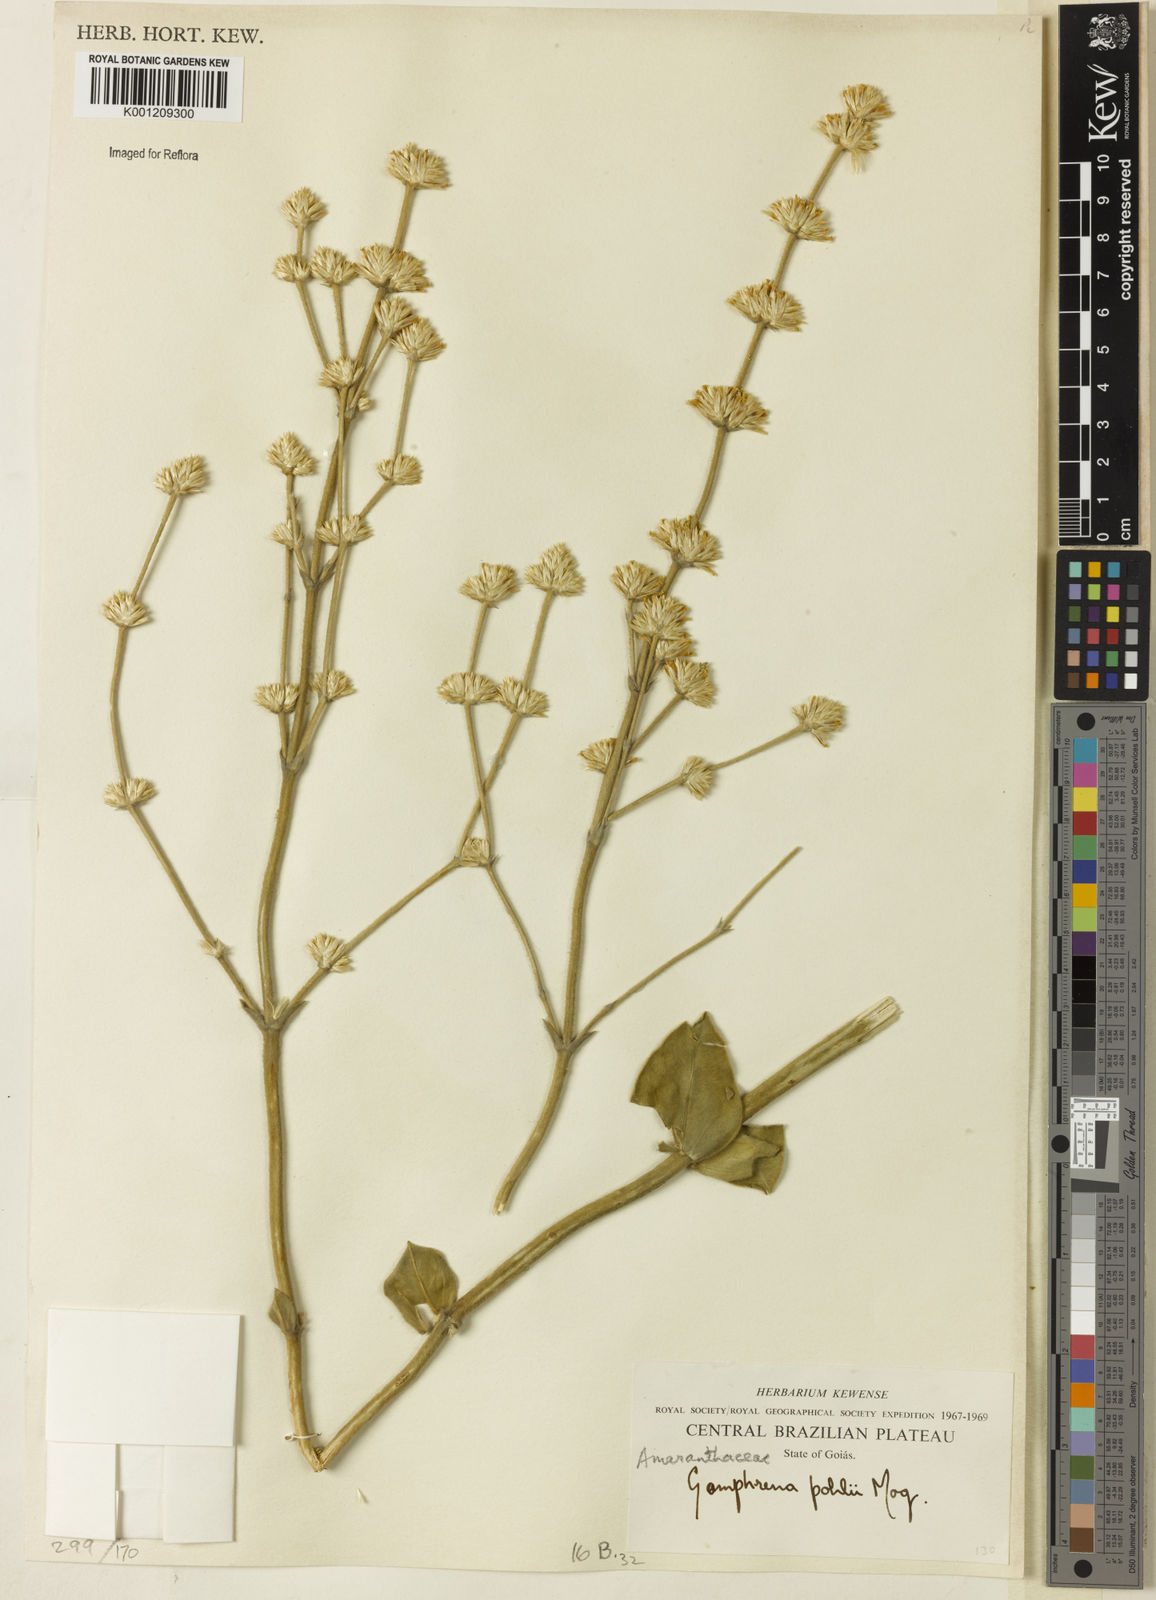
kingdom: Plantae
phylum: Tracheophyta
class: Magnoliopsida
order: Caryophyllales
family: Amaranthaceae
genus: Gomphrena
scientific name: Gomphrena pohlii
